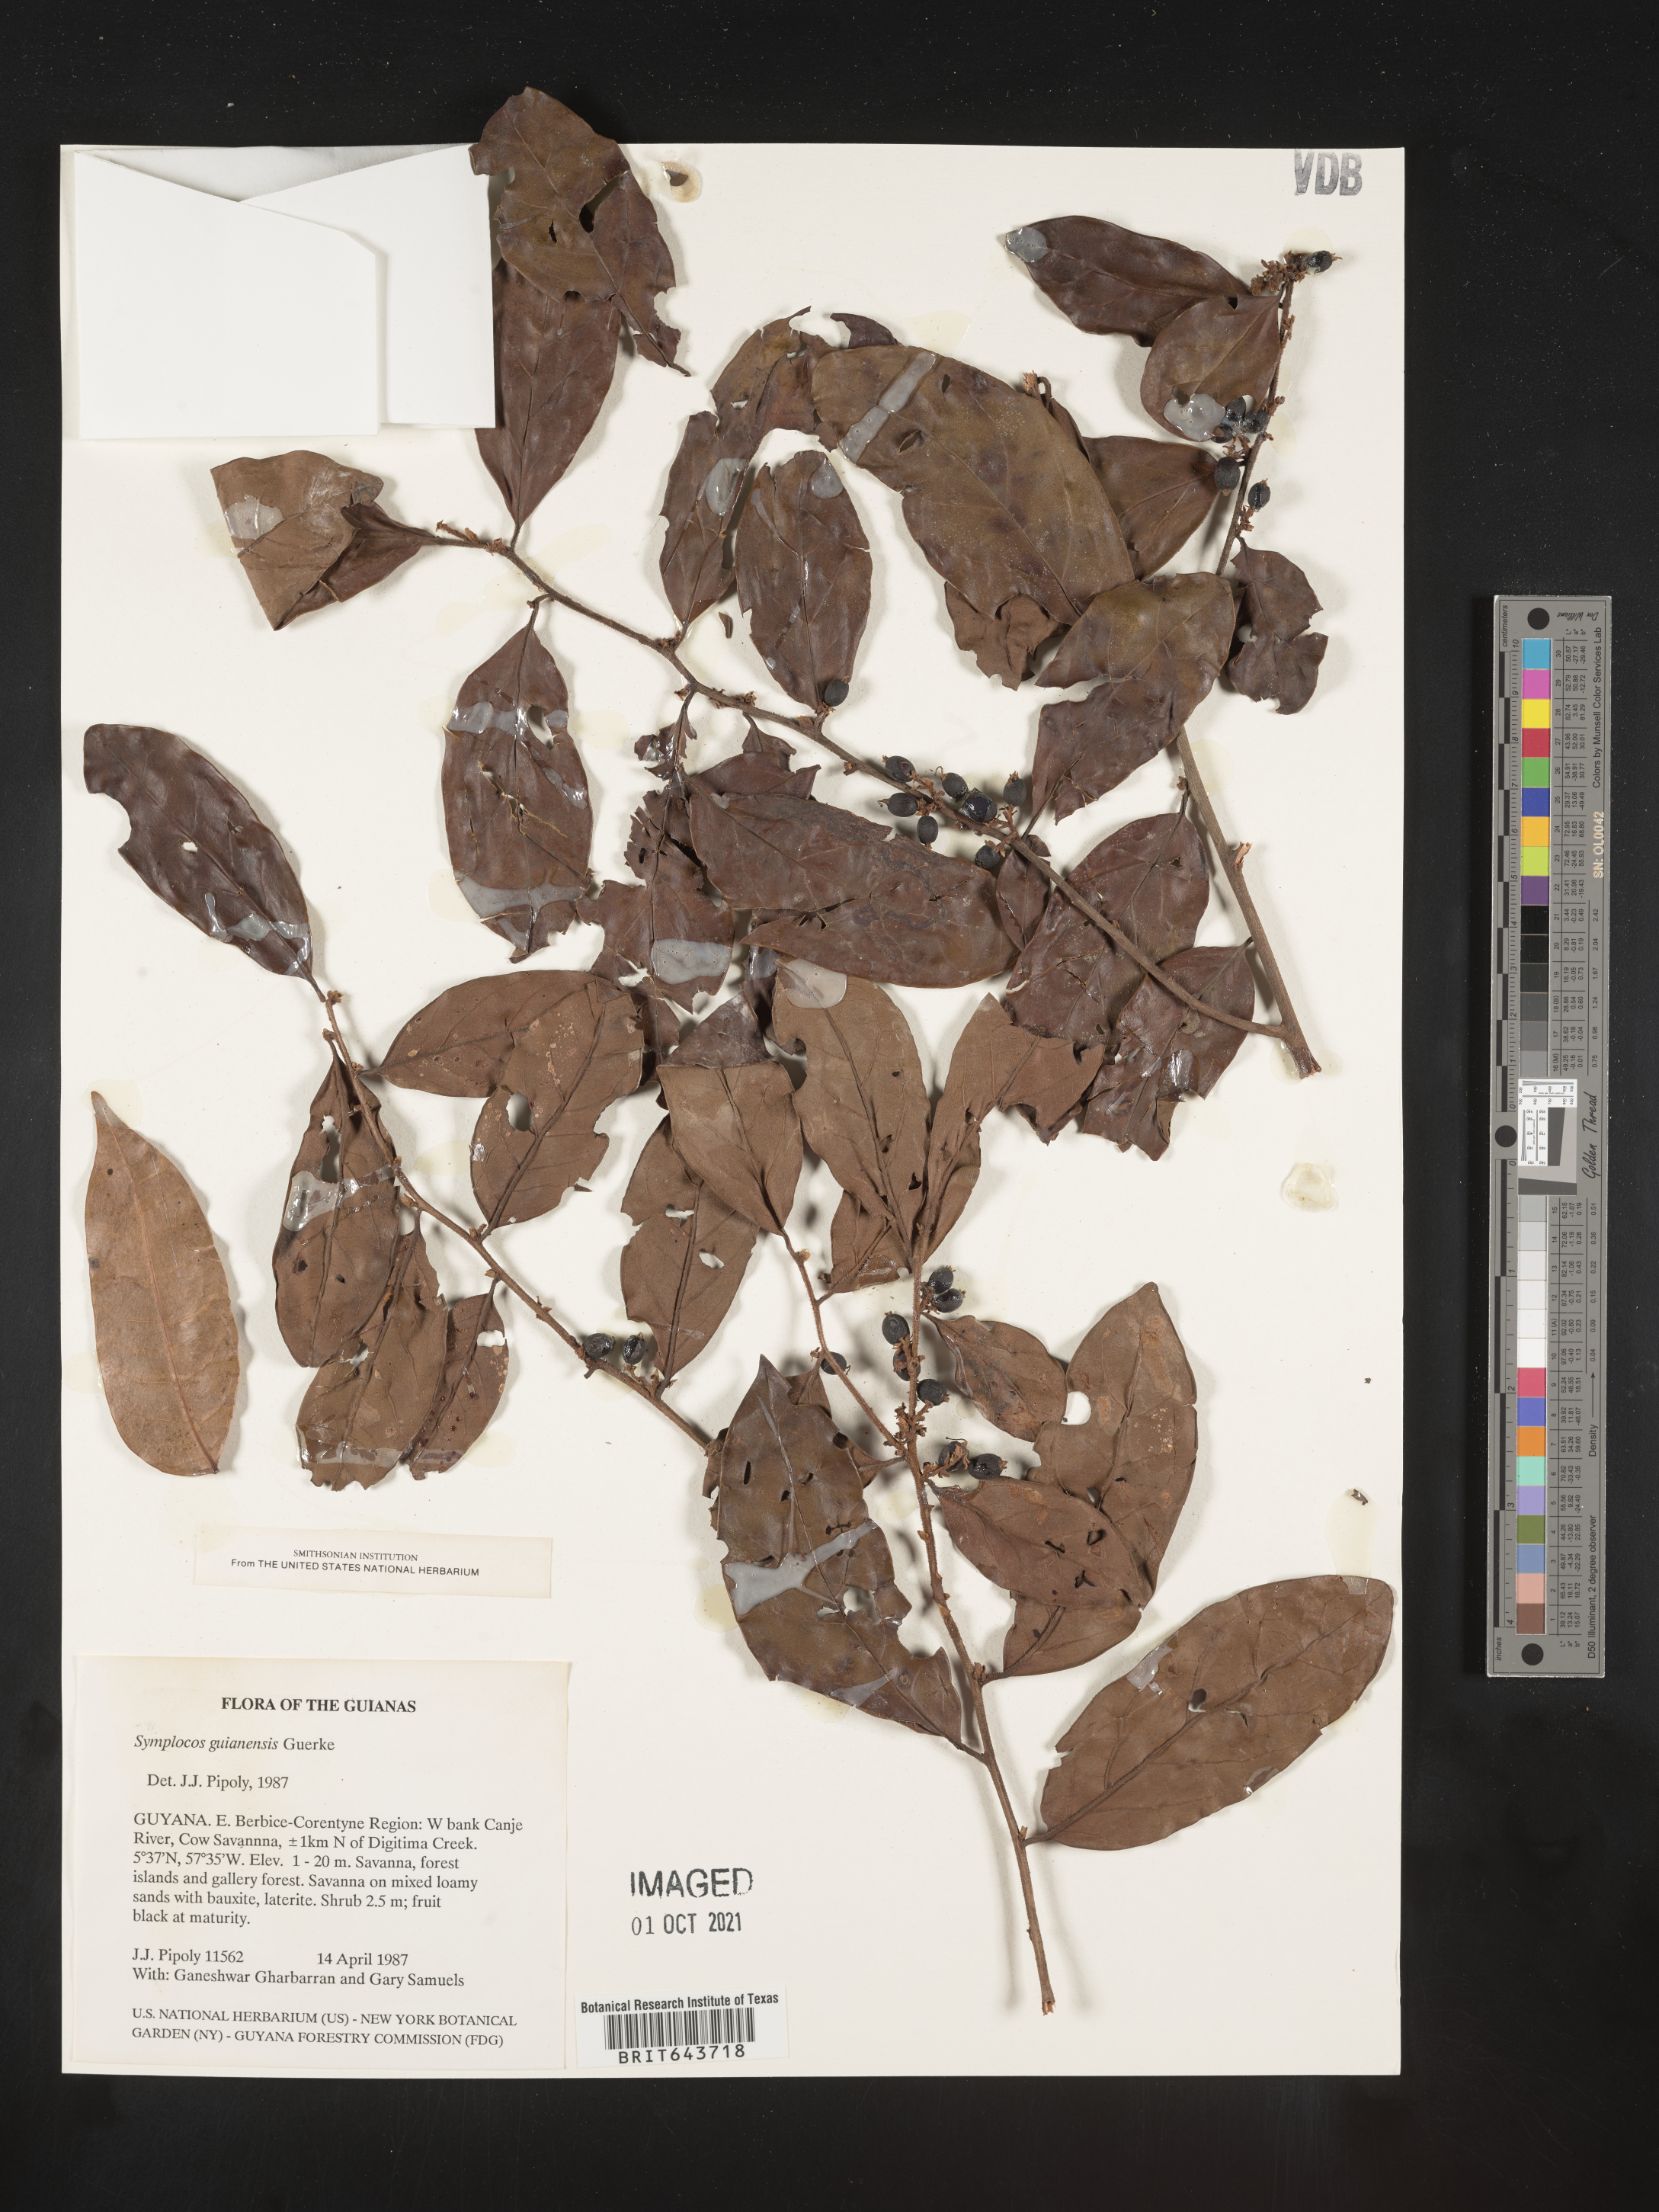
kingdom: Plantae
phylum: Tracheophyta
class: Magnoliopsida
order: Ericales
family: Symplocaceae
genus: Symplocos
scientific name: Symplocos
